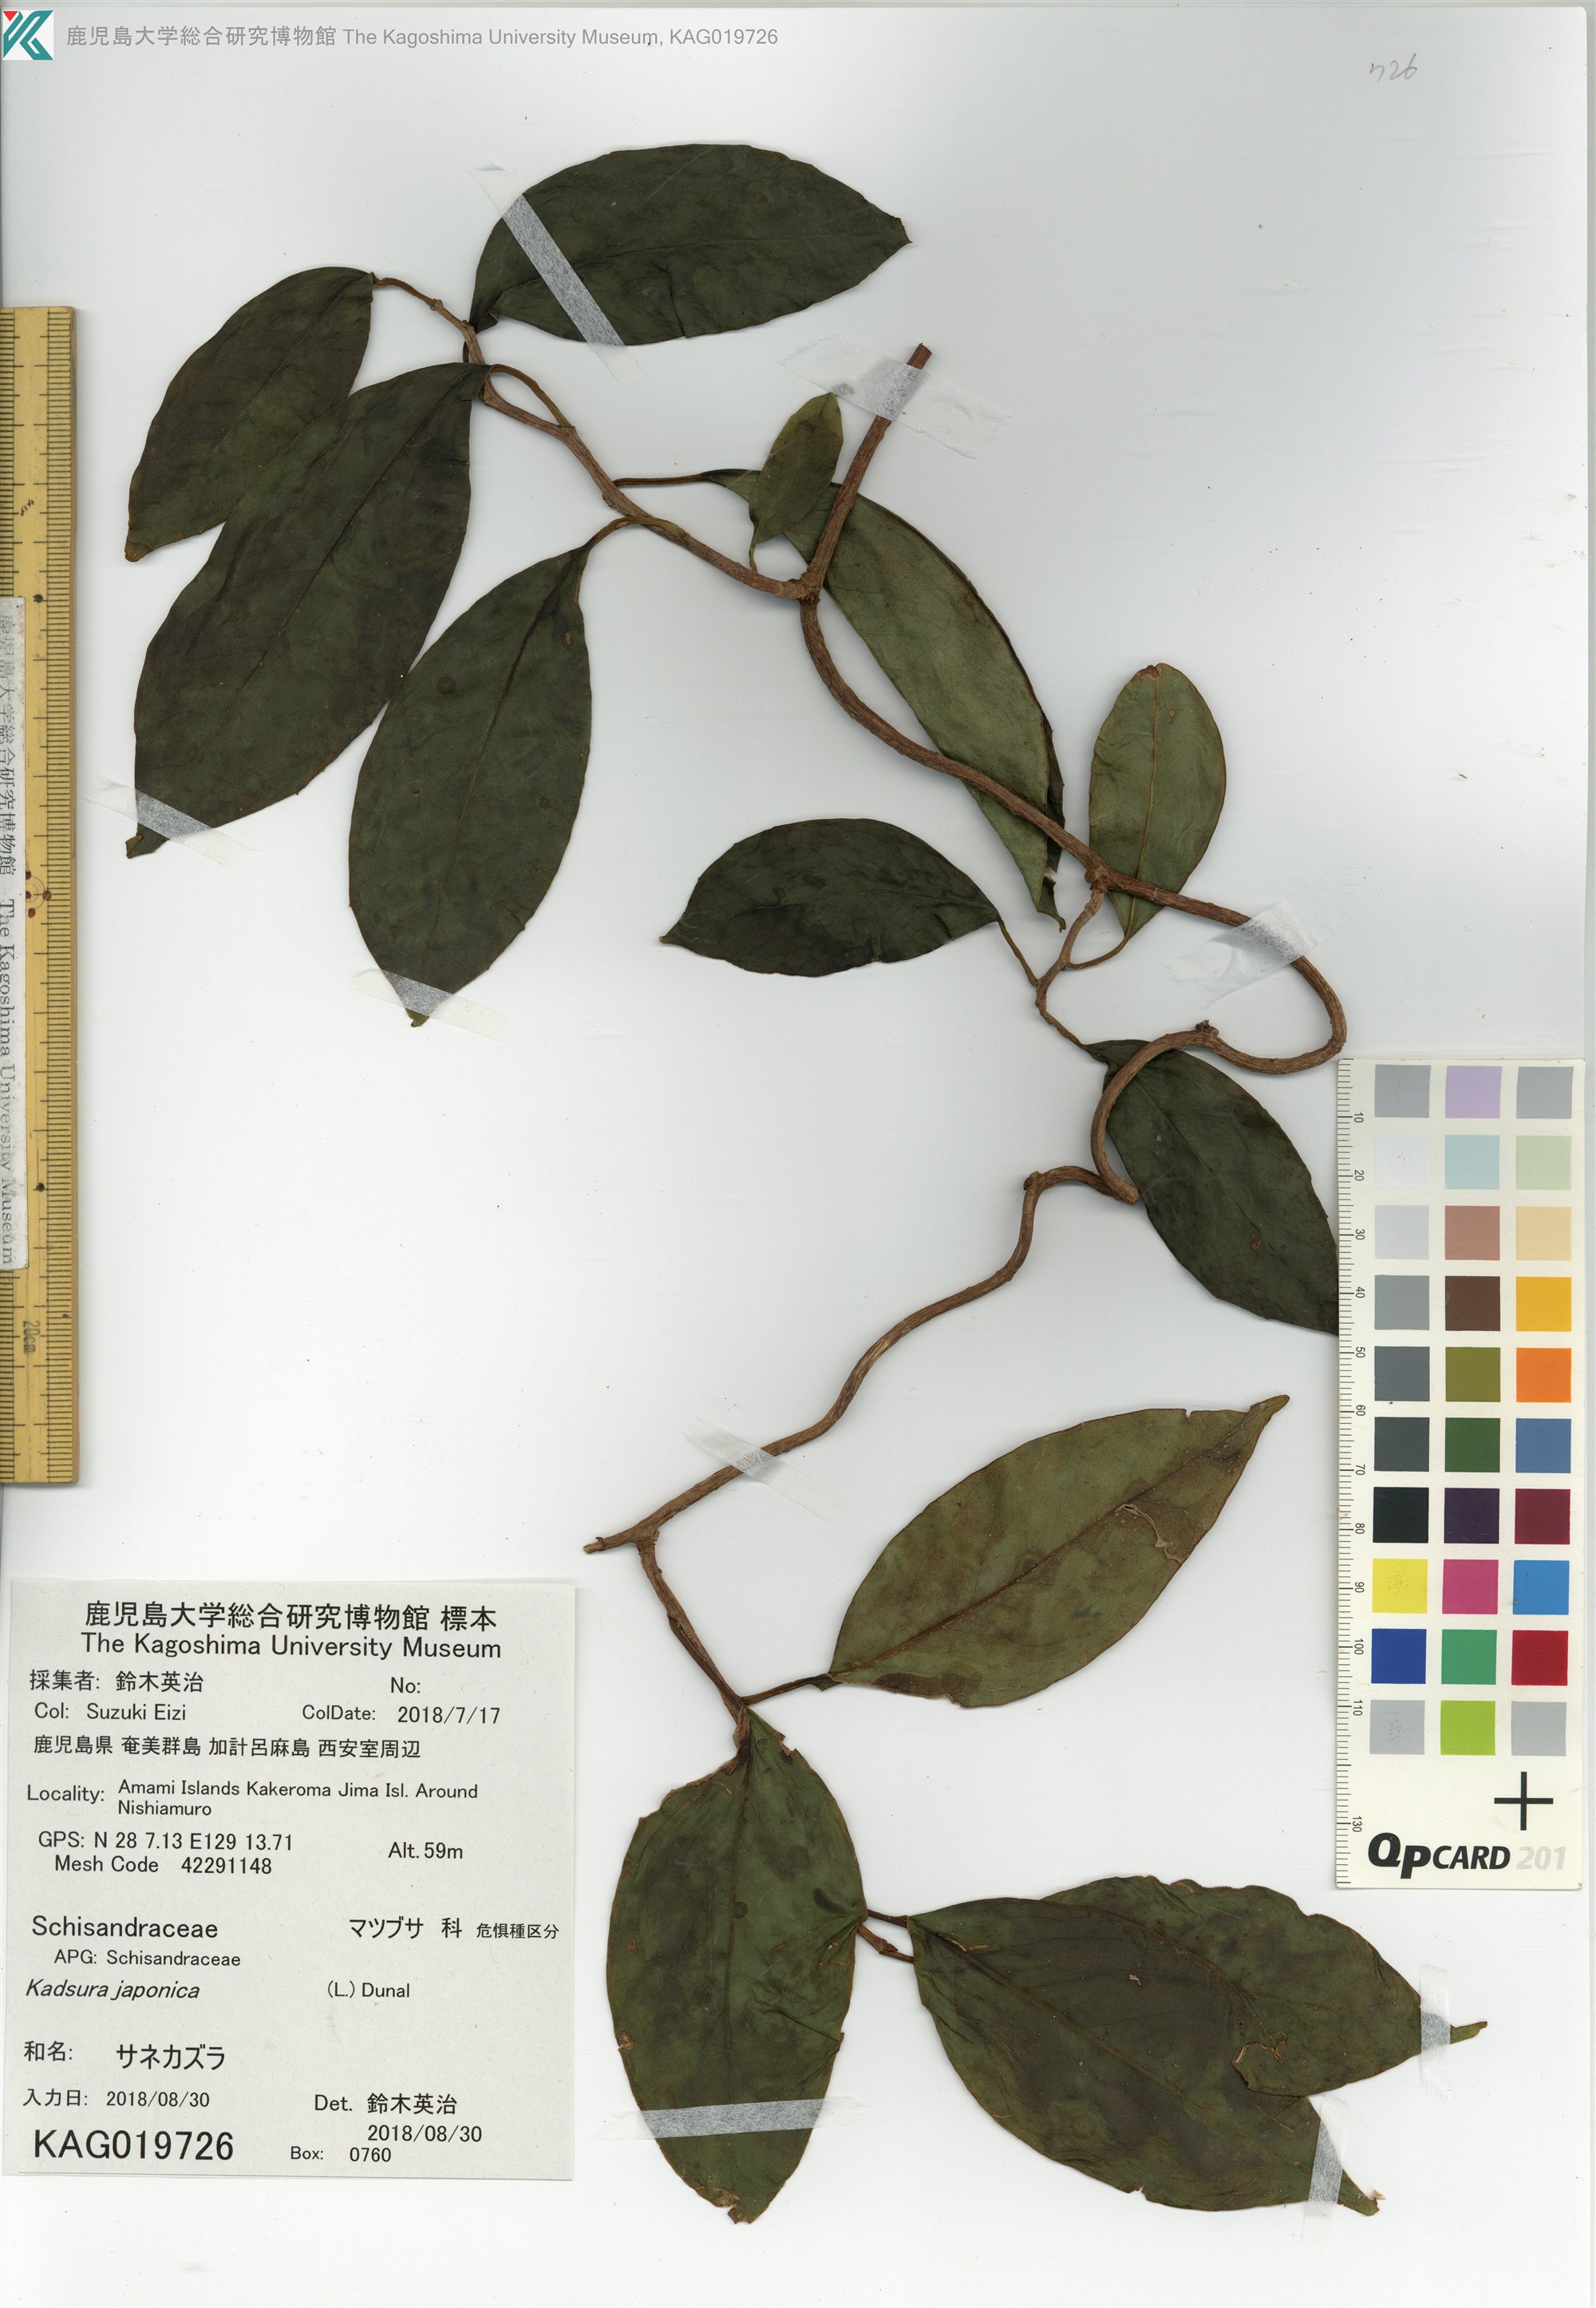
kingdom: Plantae
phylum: Tracheophyta
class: Magnoliopsida
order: Austrobaileyales
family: Schisandraceae
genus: Kadsura
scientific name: Kadsura japonica
